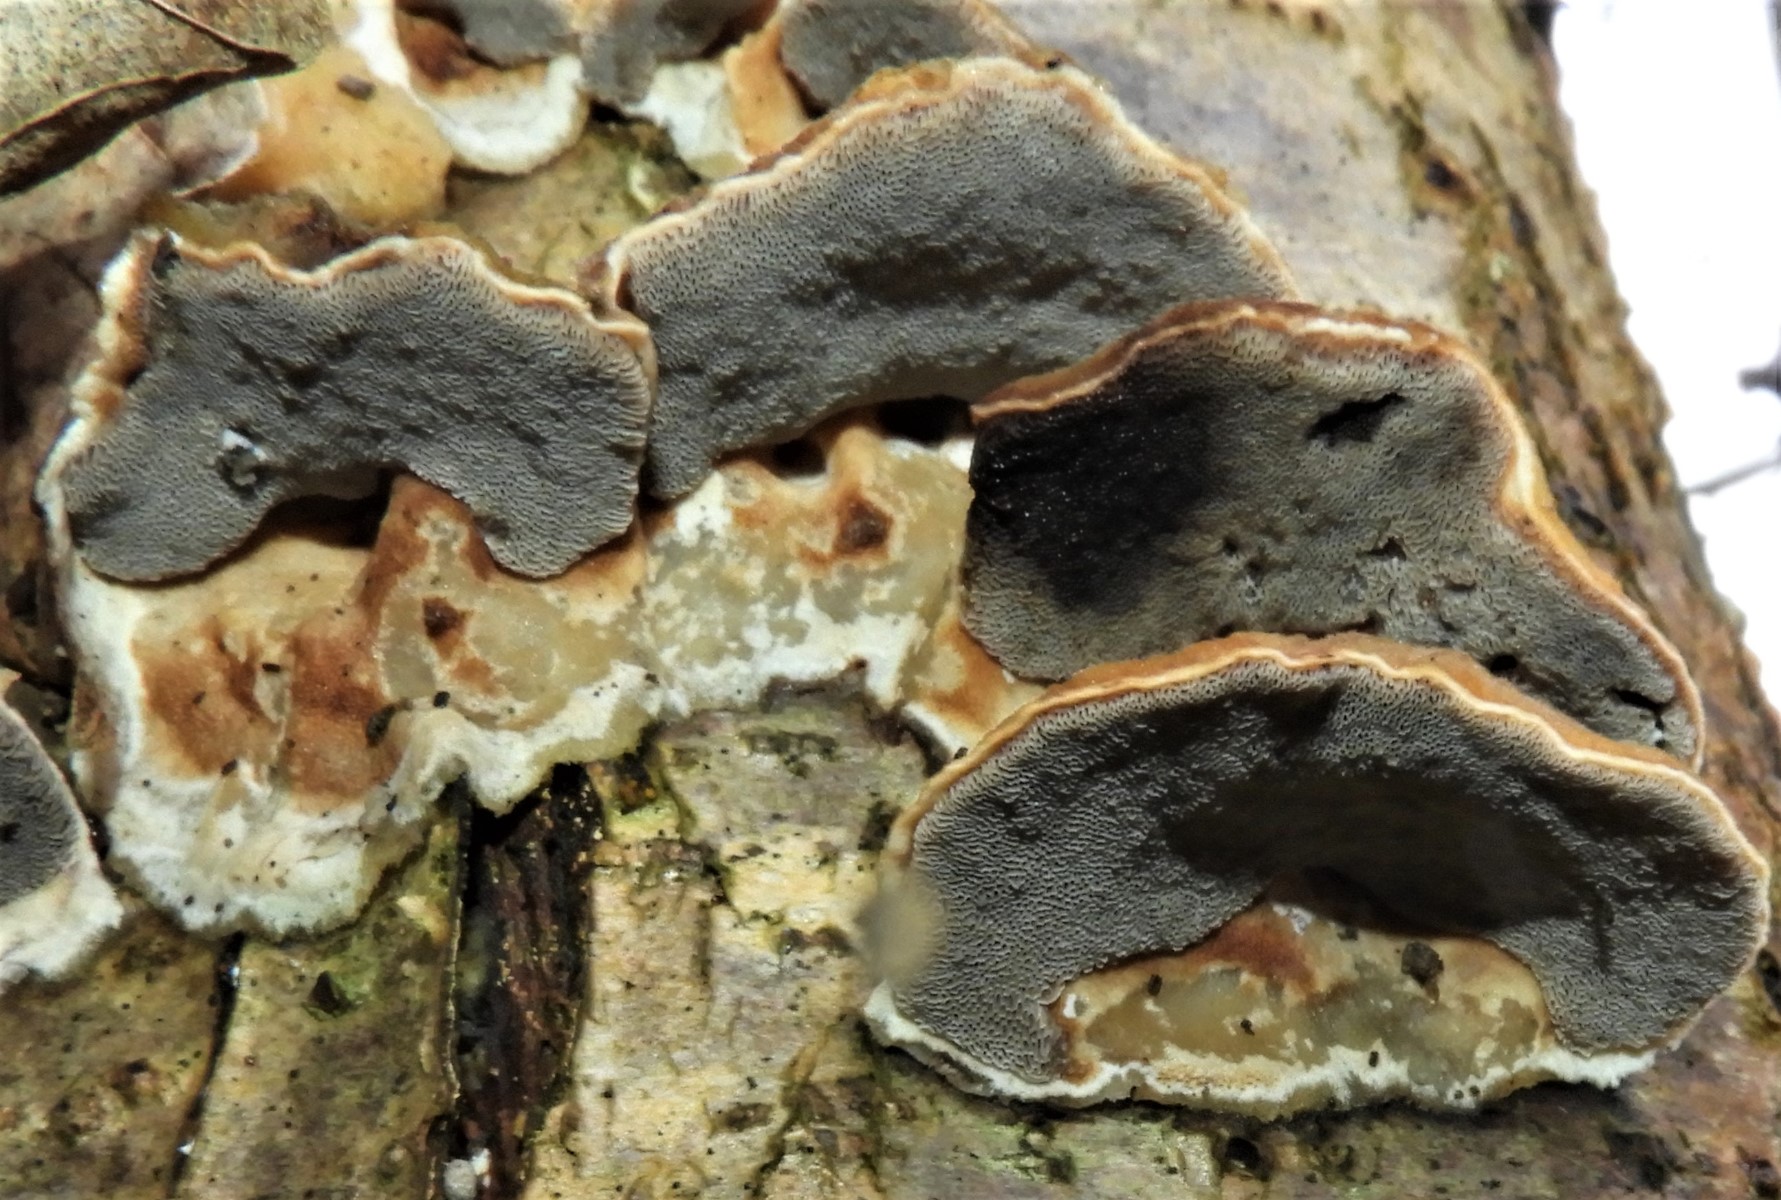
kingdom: Fungi
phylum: Basidiomycota
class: Agaricomycetes
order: Polyporales
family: Phanerochaetaceae
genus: Bjerkandera
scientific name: Bjerkandera adusta
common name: sveden sodporesvamp
